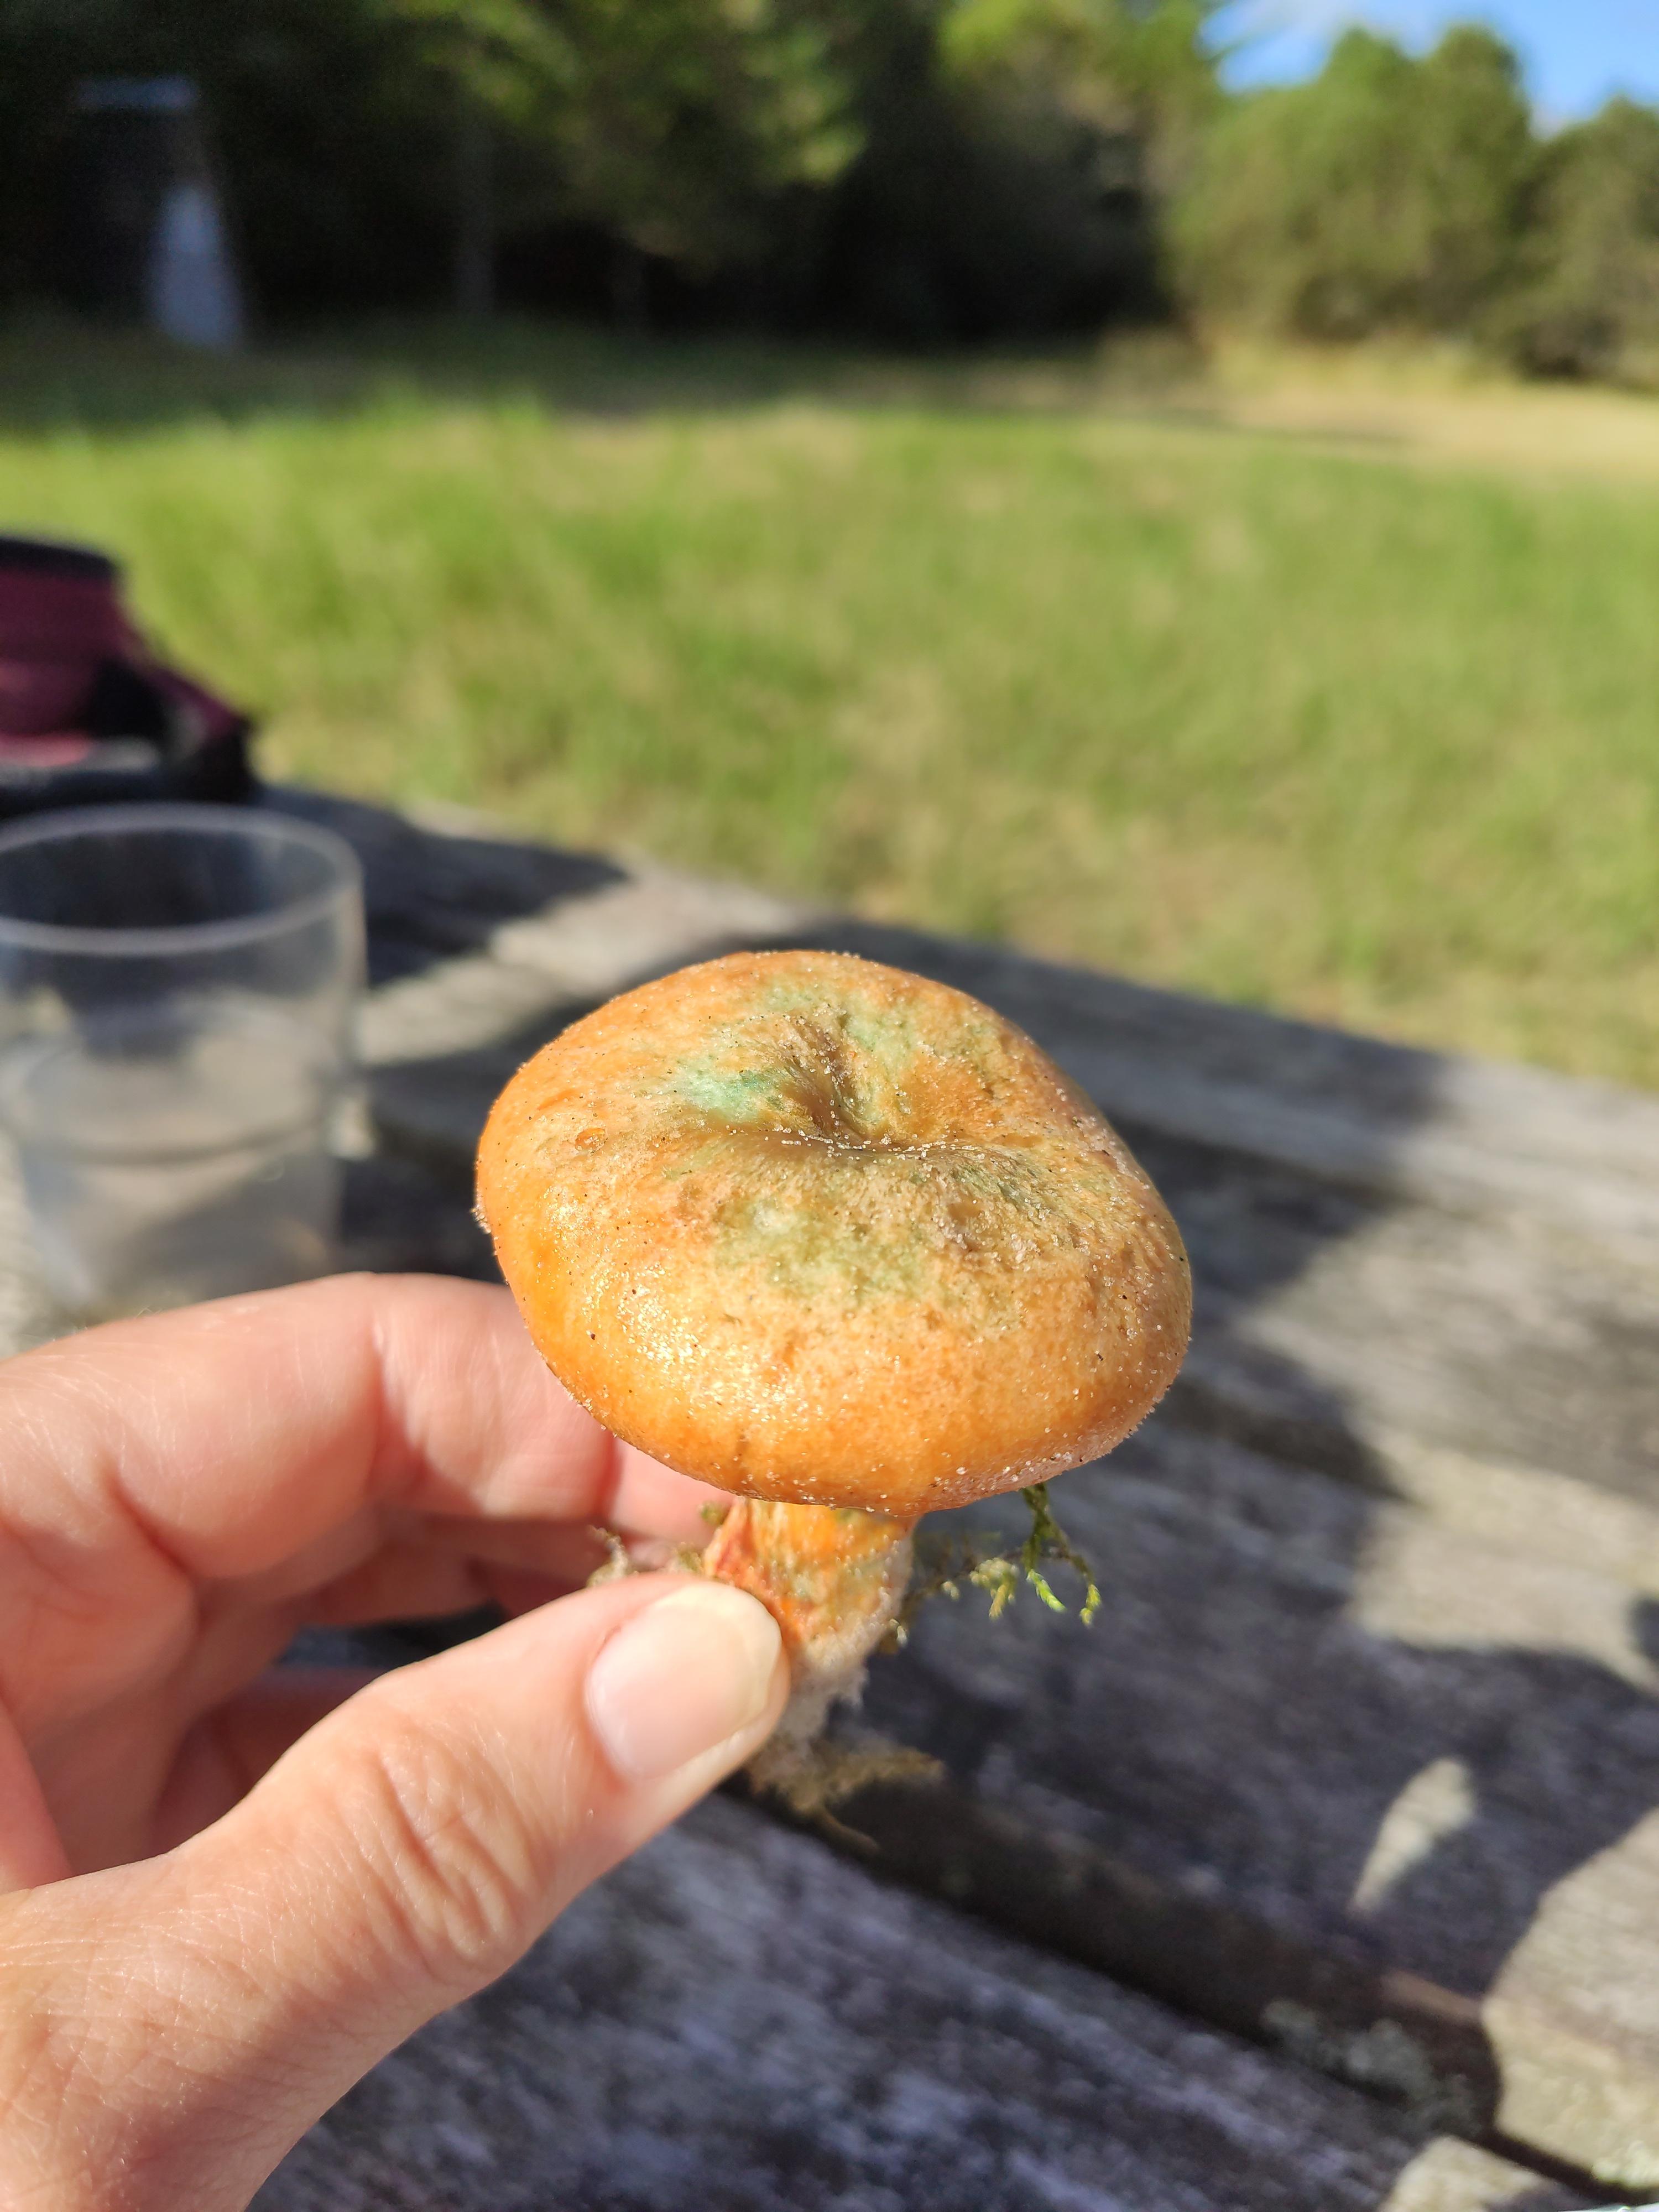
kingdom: Fungi
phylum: Basidiomycota
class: Agaricomycetes
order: Russulales
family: Russulaceae
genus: Lactarius
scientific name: Lactarius
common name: mælkehat
